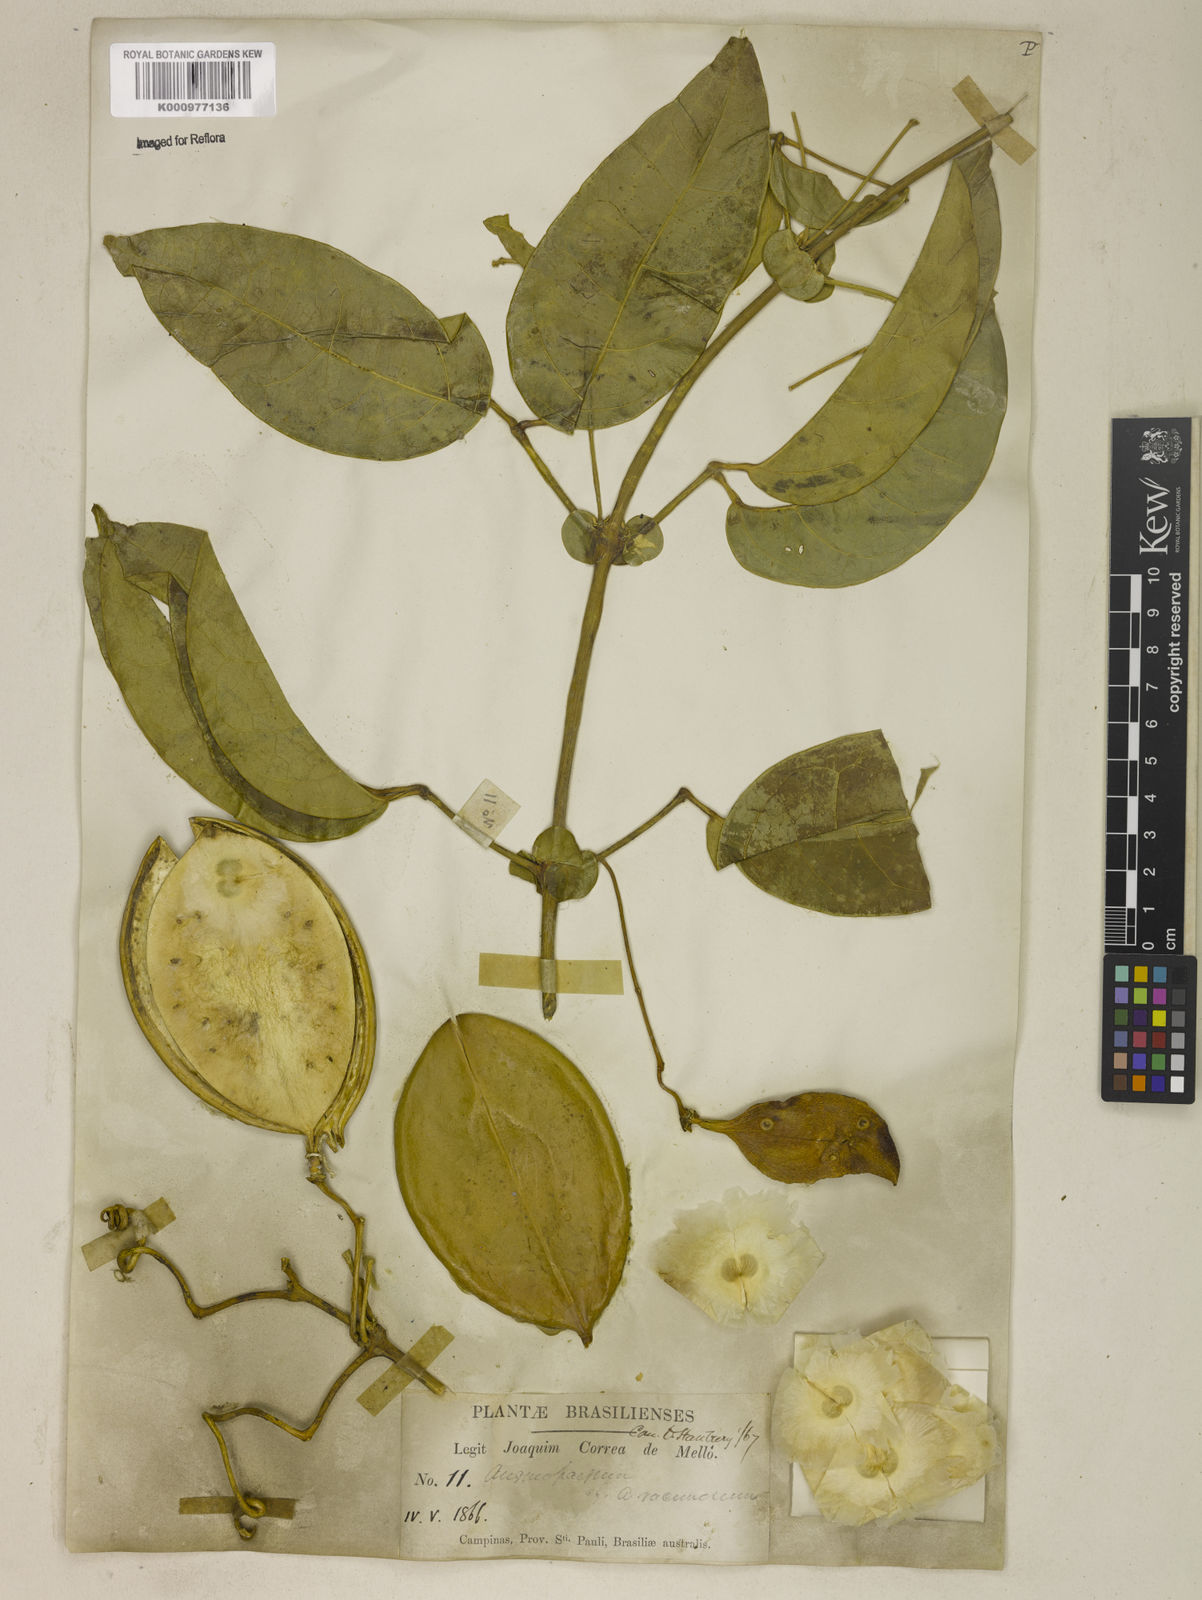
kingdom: Plantae
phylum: Tracheophyta
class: Magnoliopsida
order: Lamiales
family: Bignoniaceae
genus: Anemopaegma
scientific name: Anemopaegma chamberlaynii
